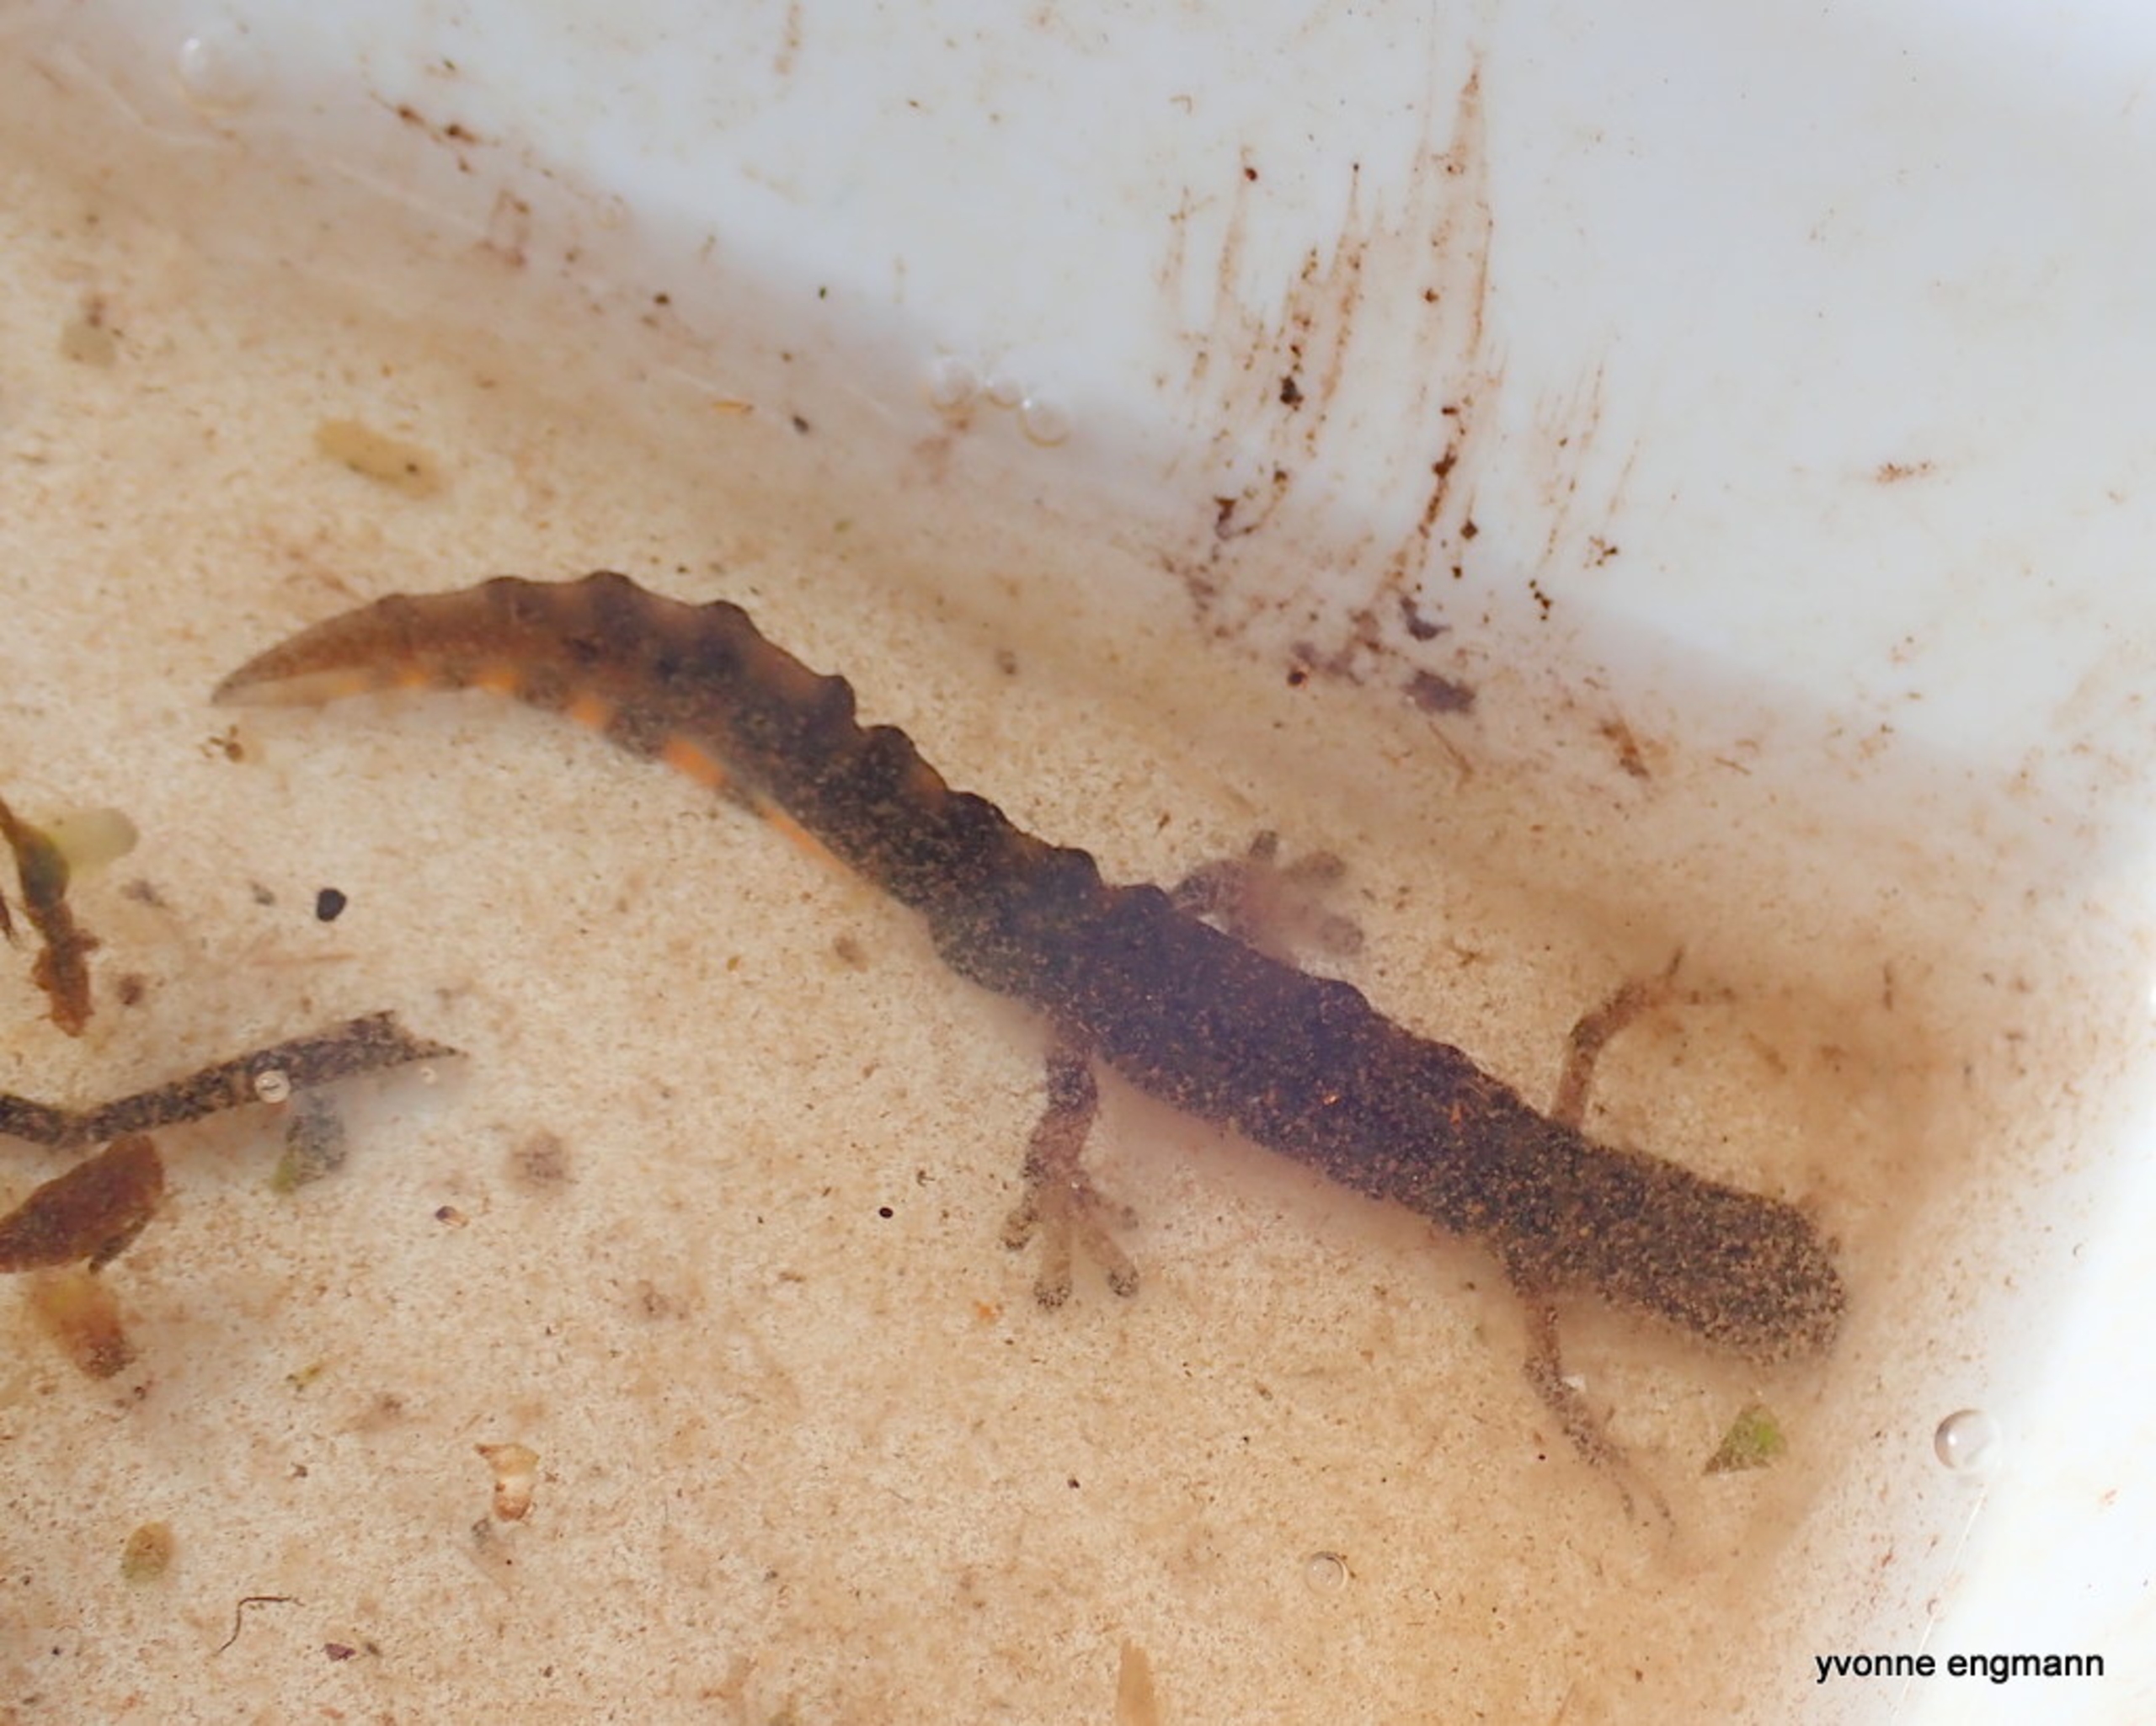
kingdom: Animalia
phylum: Chordata
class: Amphibia
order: Caudata
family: Salamandridae
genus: Lissotriton
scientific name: Lissotriton vulgaris
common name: Lille vandsalamander
